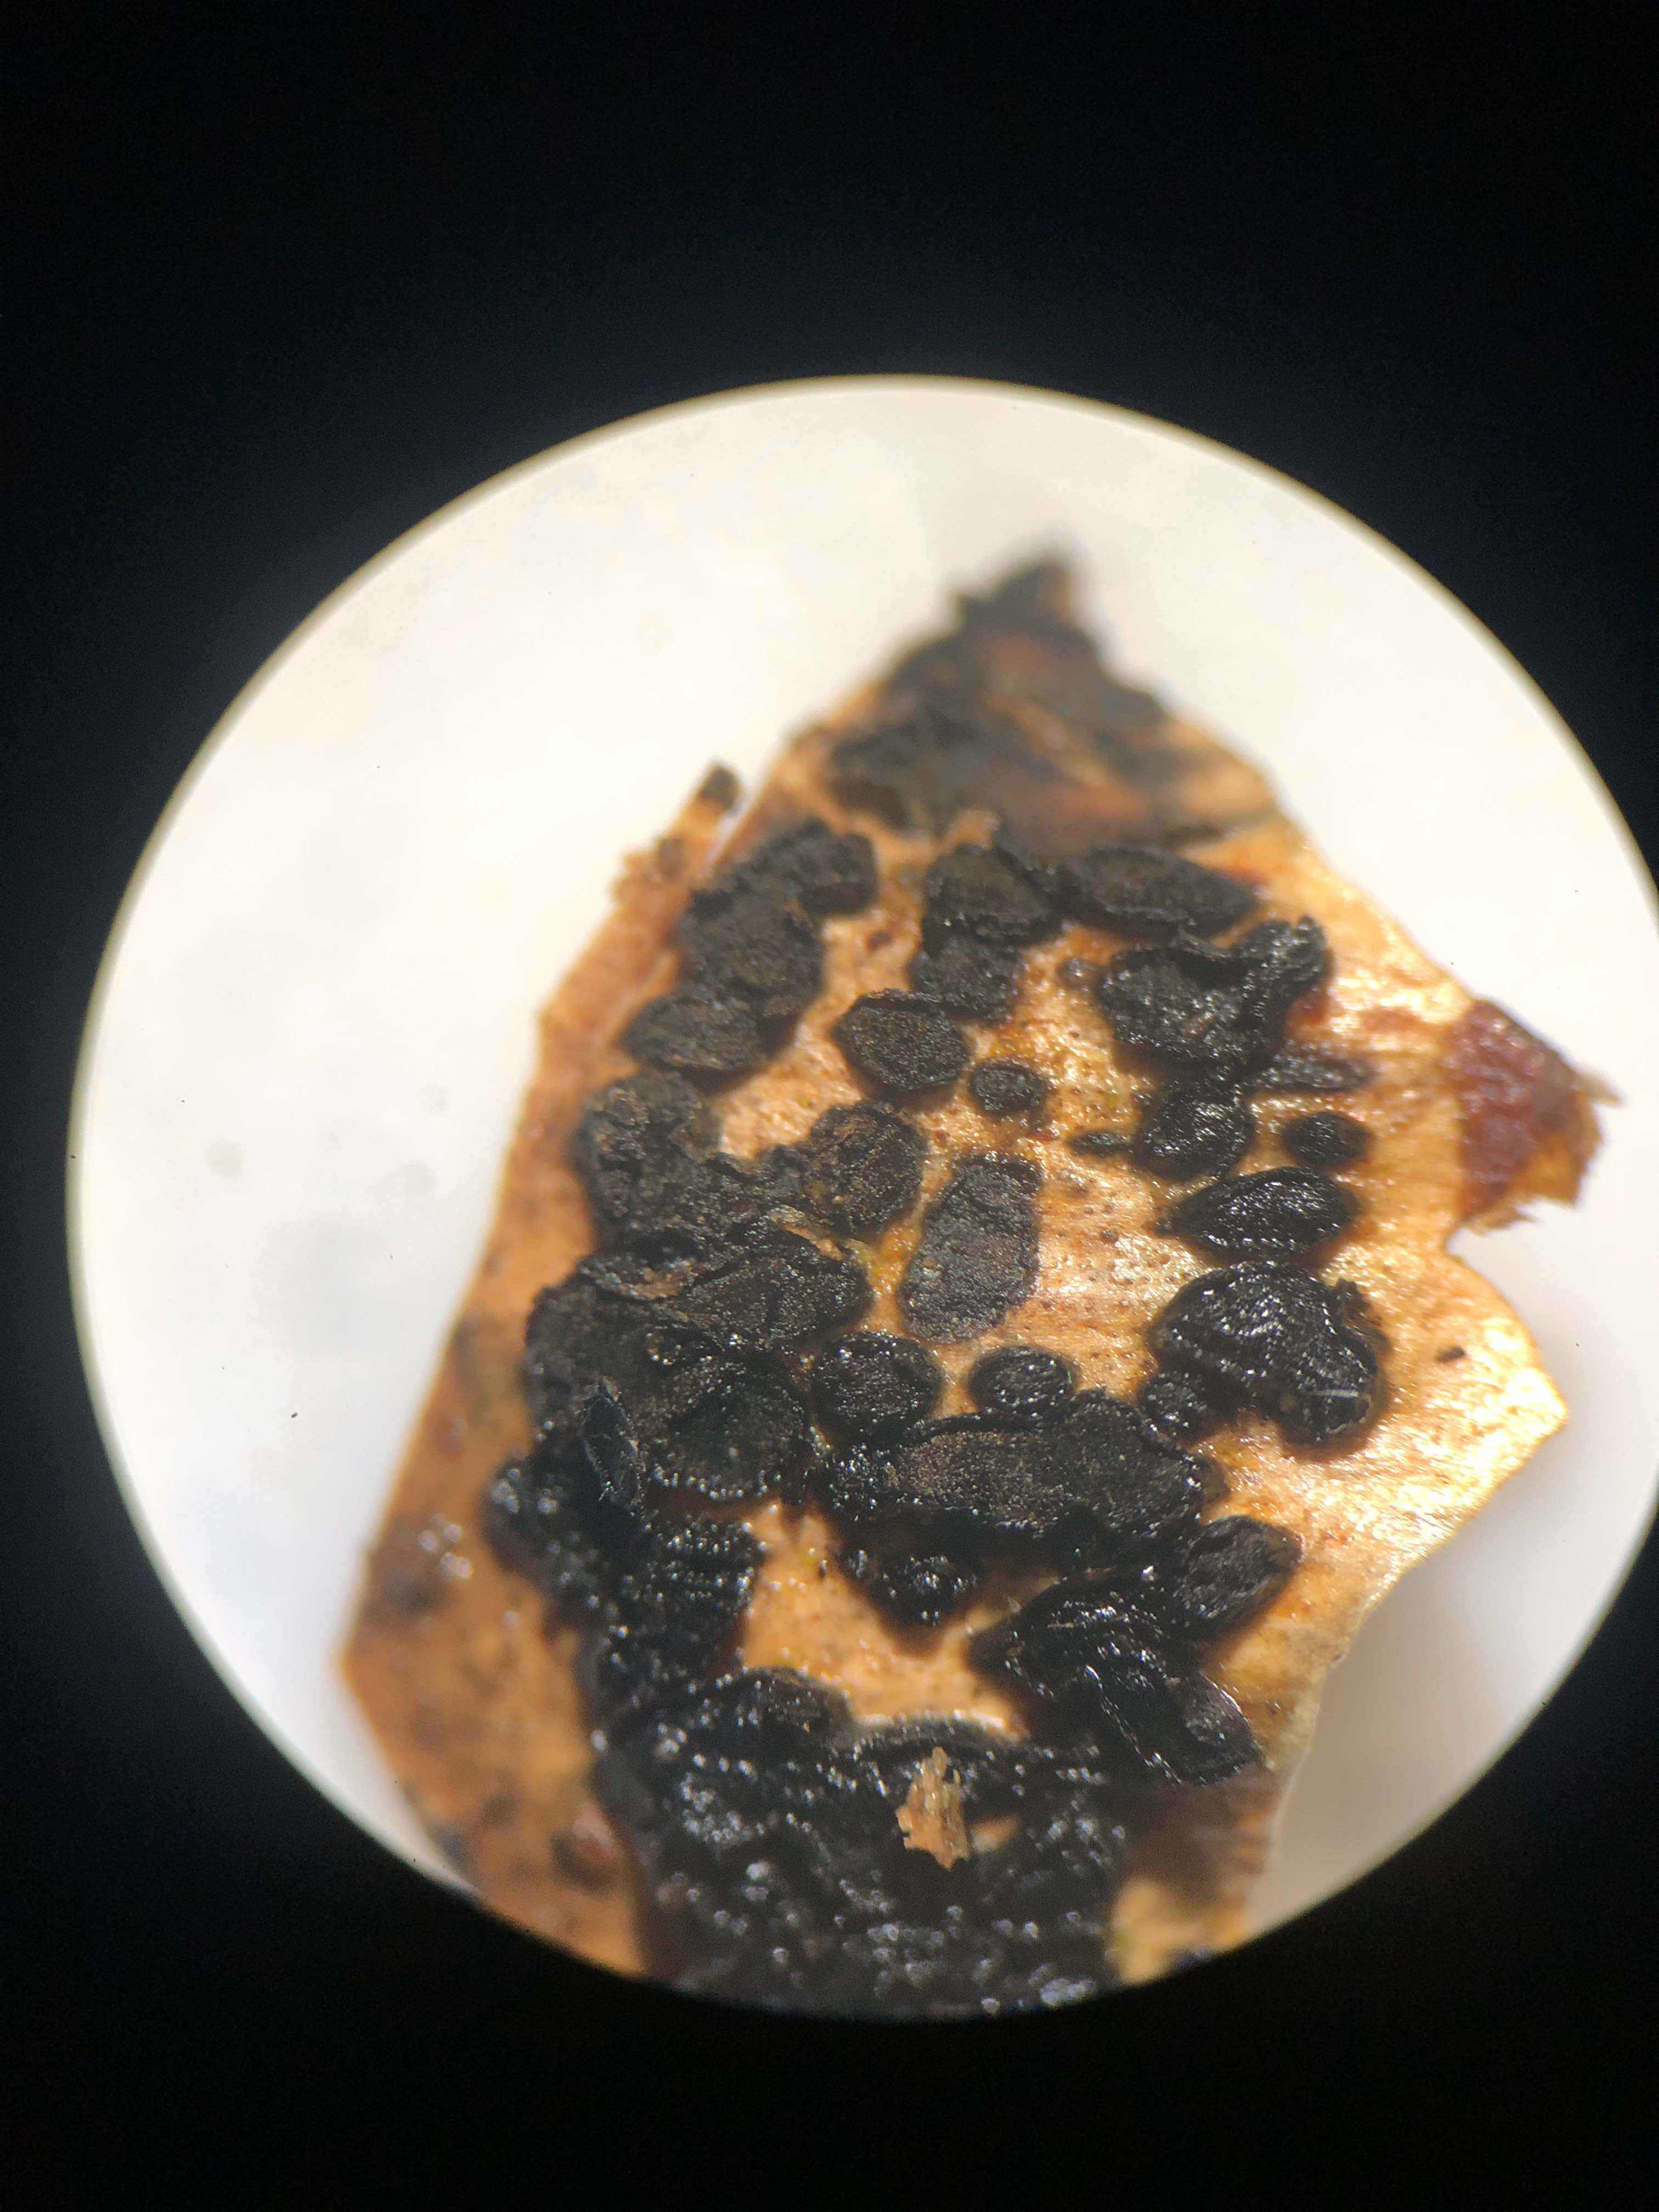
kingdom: Fungi
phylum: Ascomycota
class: Dothideomycetes
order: Pleosporales
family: Melanommataceae
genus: Phragmotrichum
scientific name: Phragmotrichum chailletii
